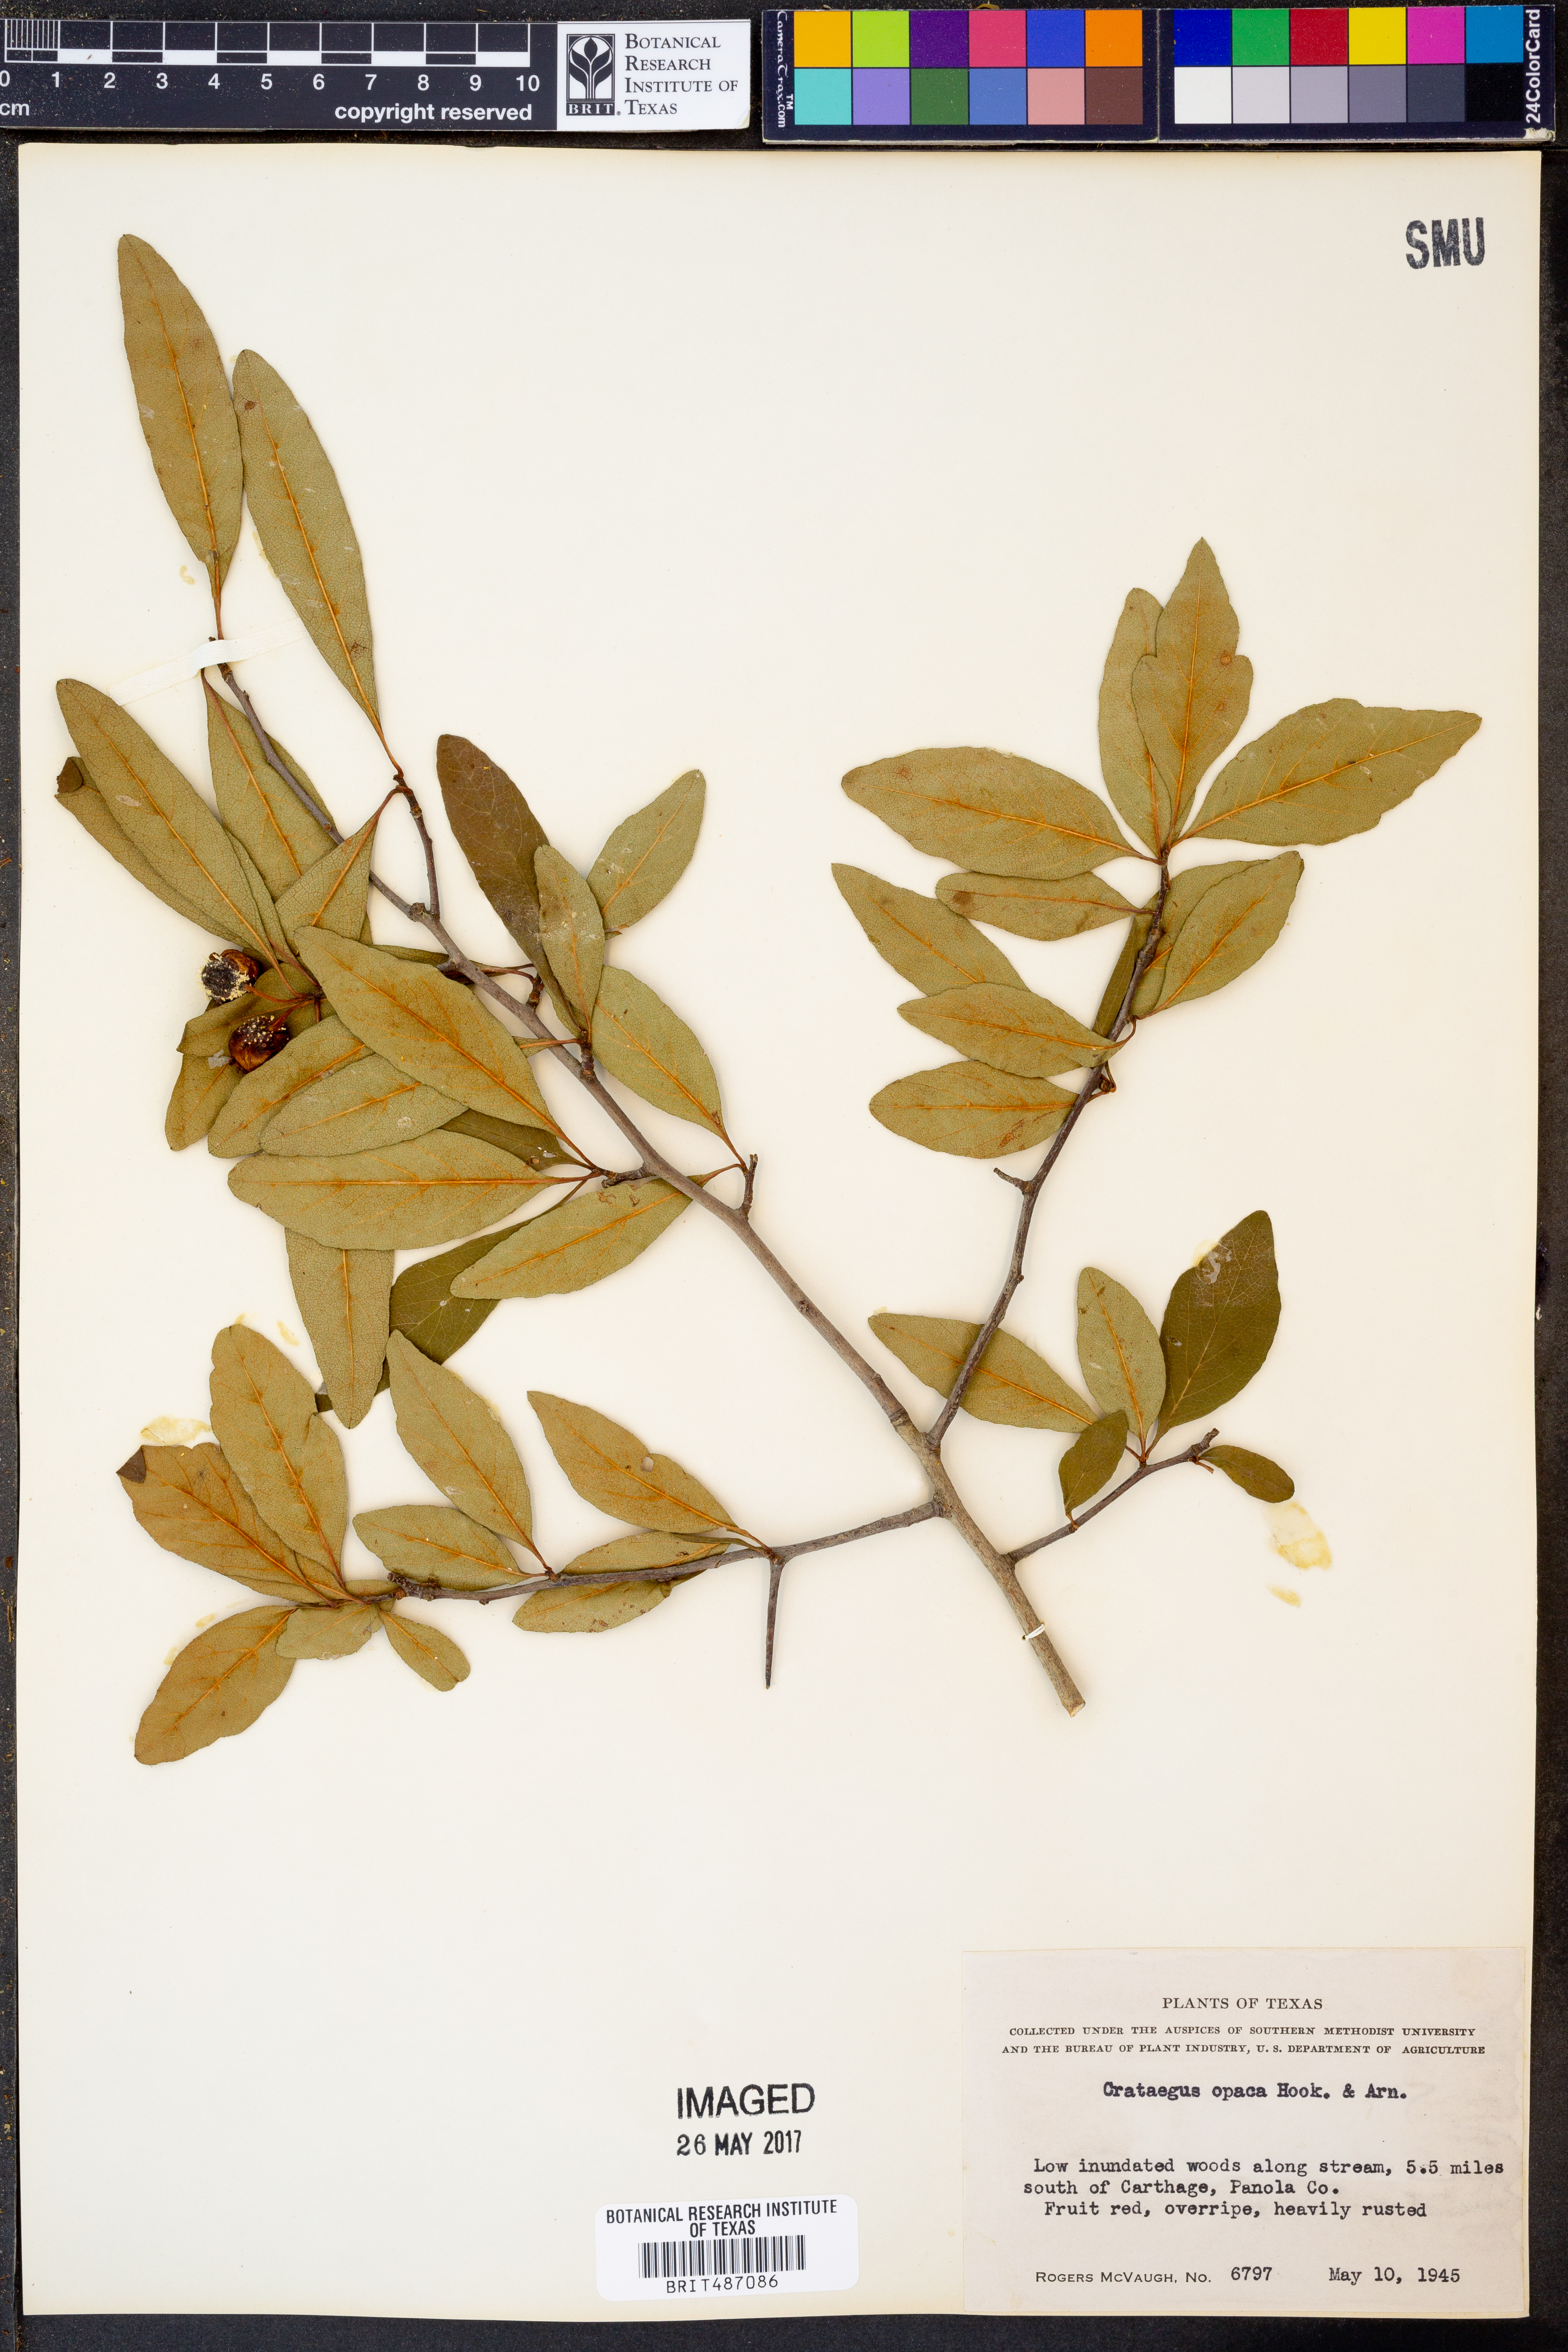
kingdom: Plantae
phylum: Tracheophyta
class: Magnoliopsida
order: Rosales
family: Rosaceae
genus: Crataegus
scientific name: Crataegus opaca
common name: Apple haw
